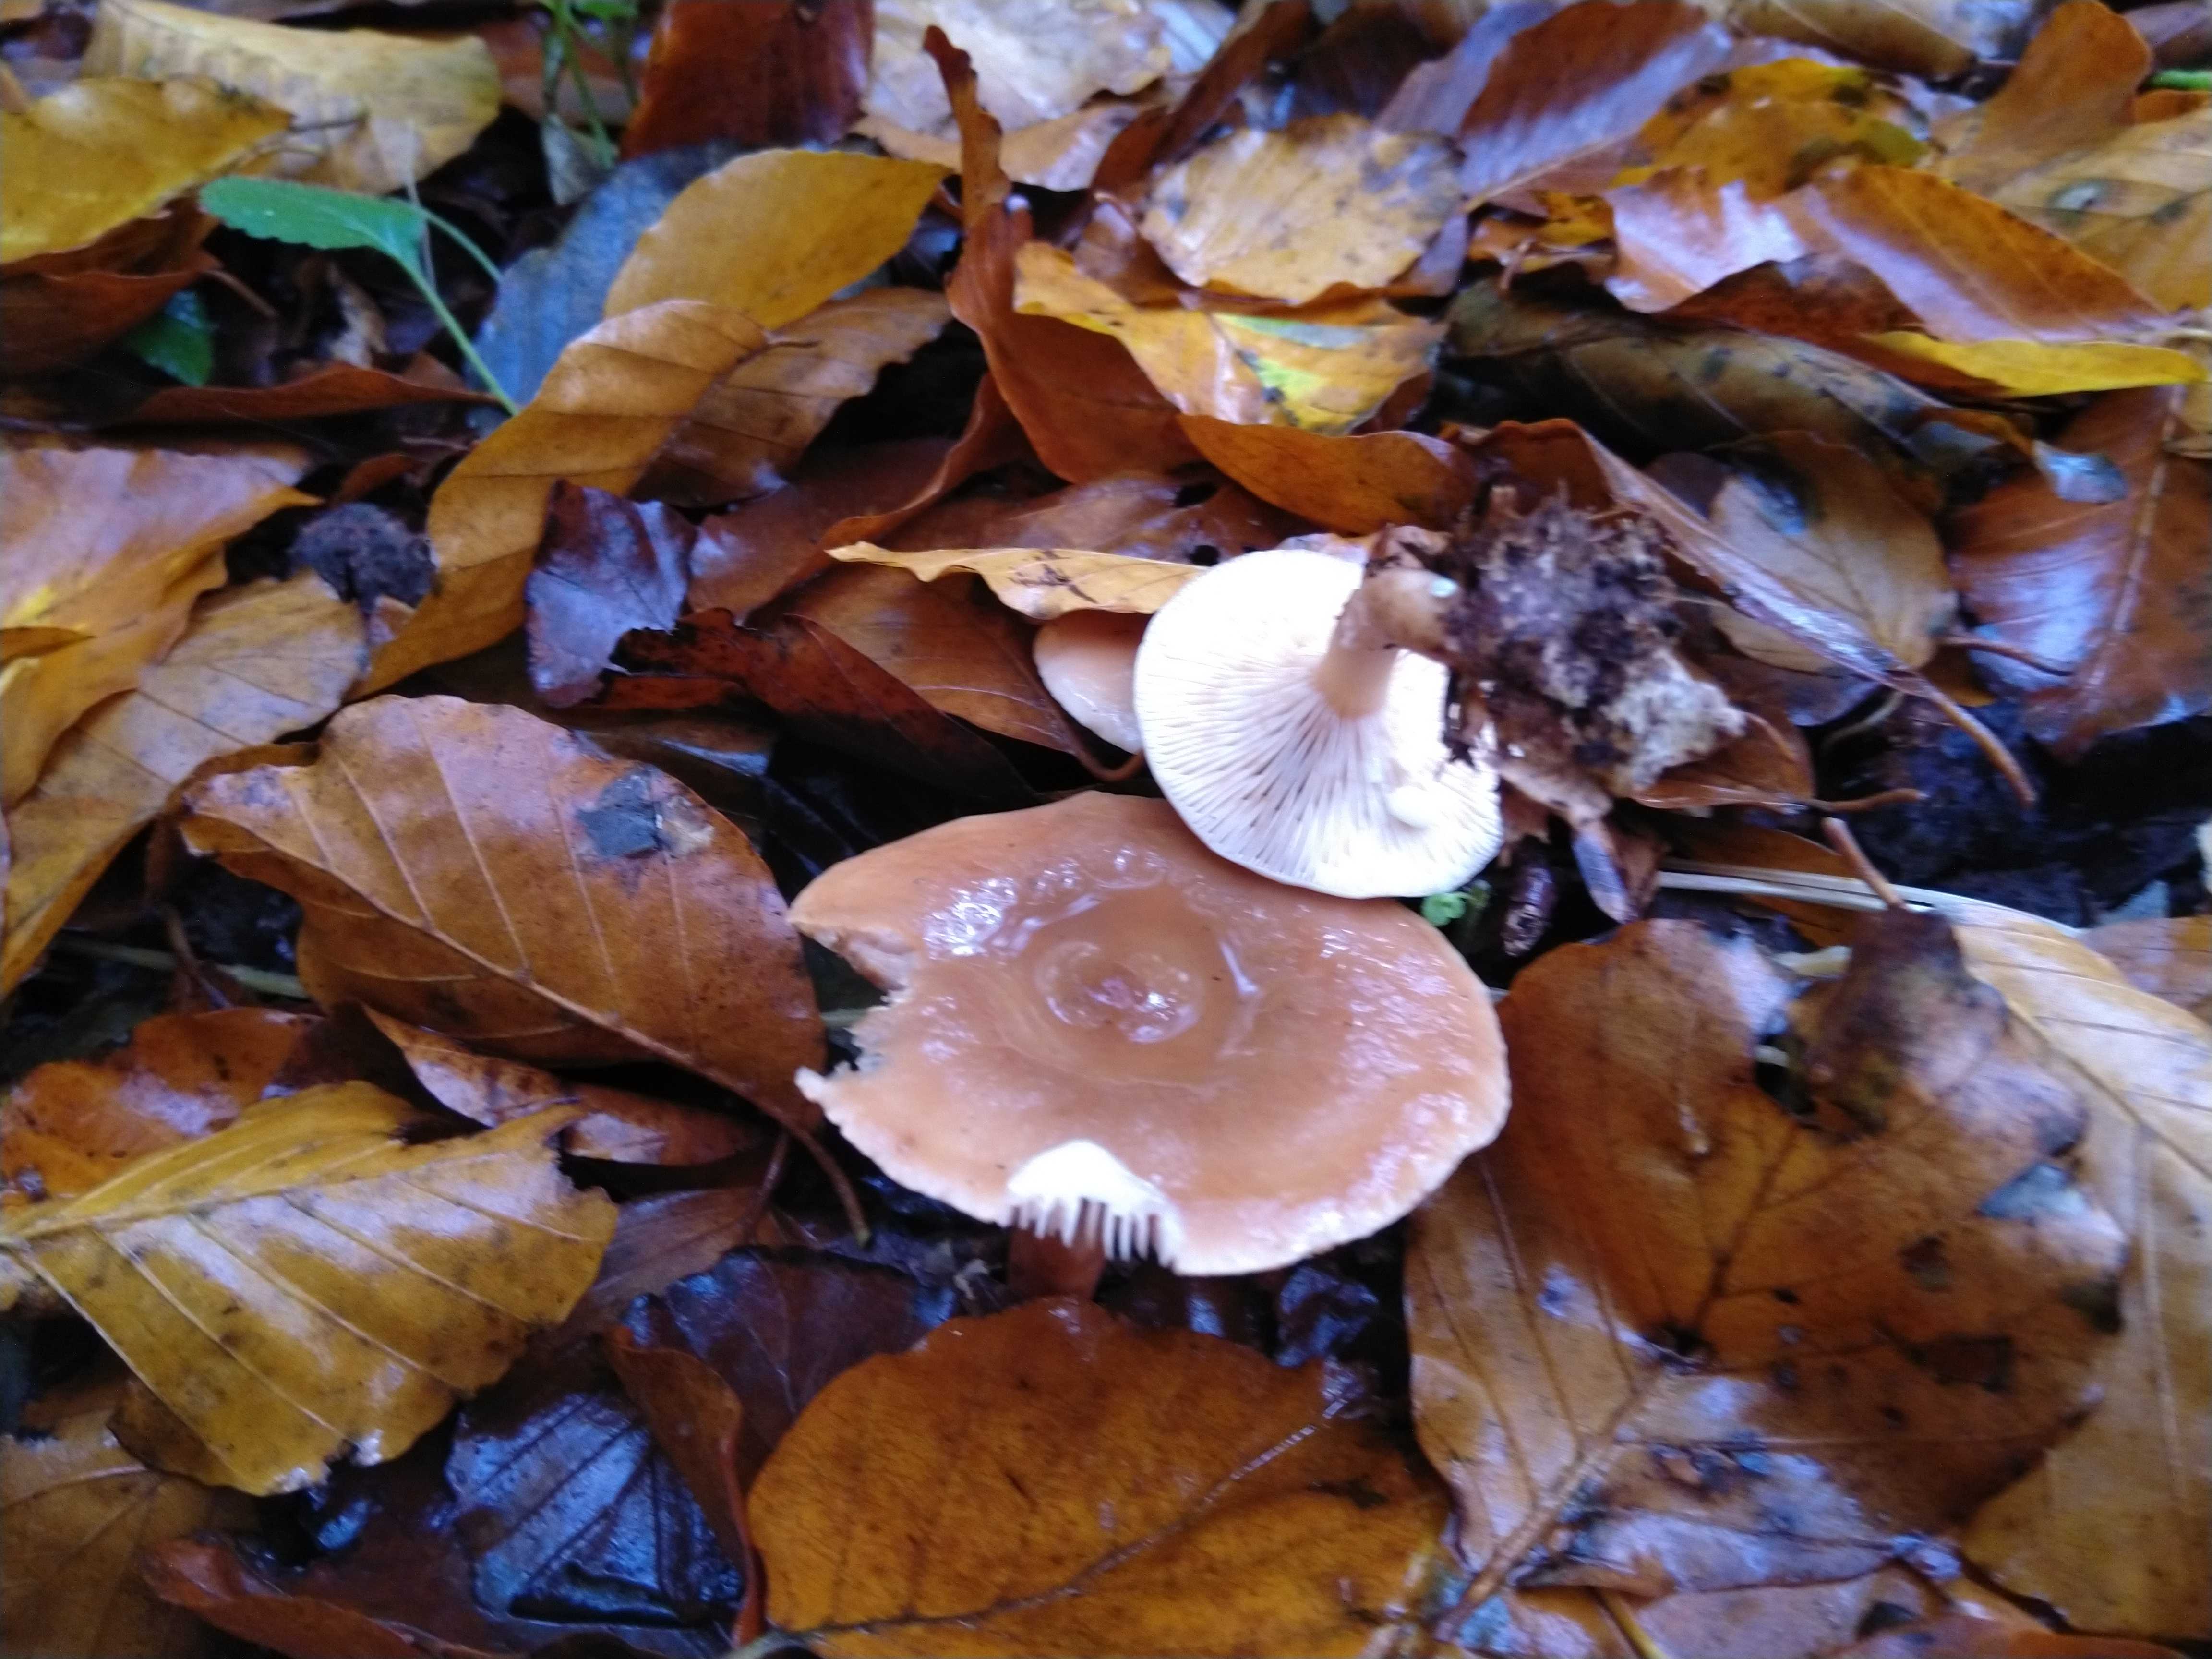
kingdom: Fungi
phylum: Basidiomycota
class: Agaricomycetes
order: Russulales
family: Russulaceae
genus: Lactarius
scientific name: Lactarius subdulcis
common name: sødlig mælkehat
